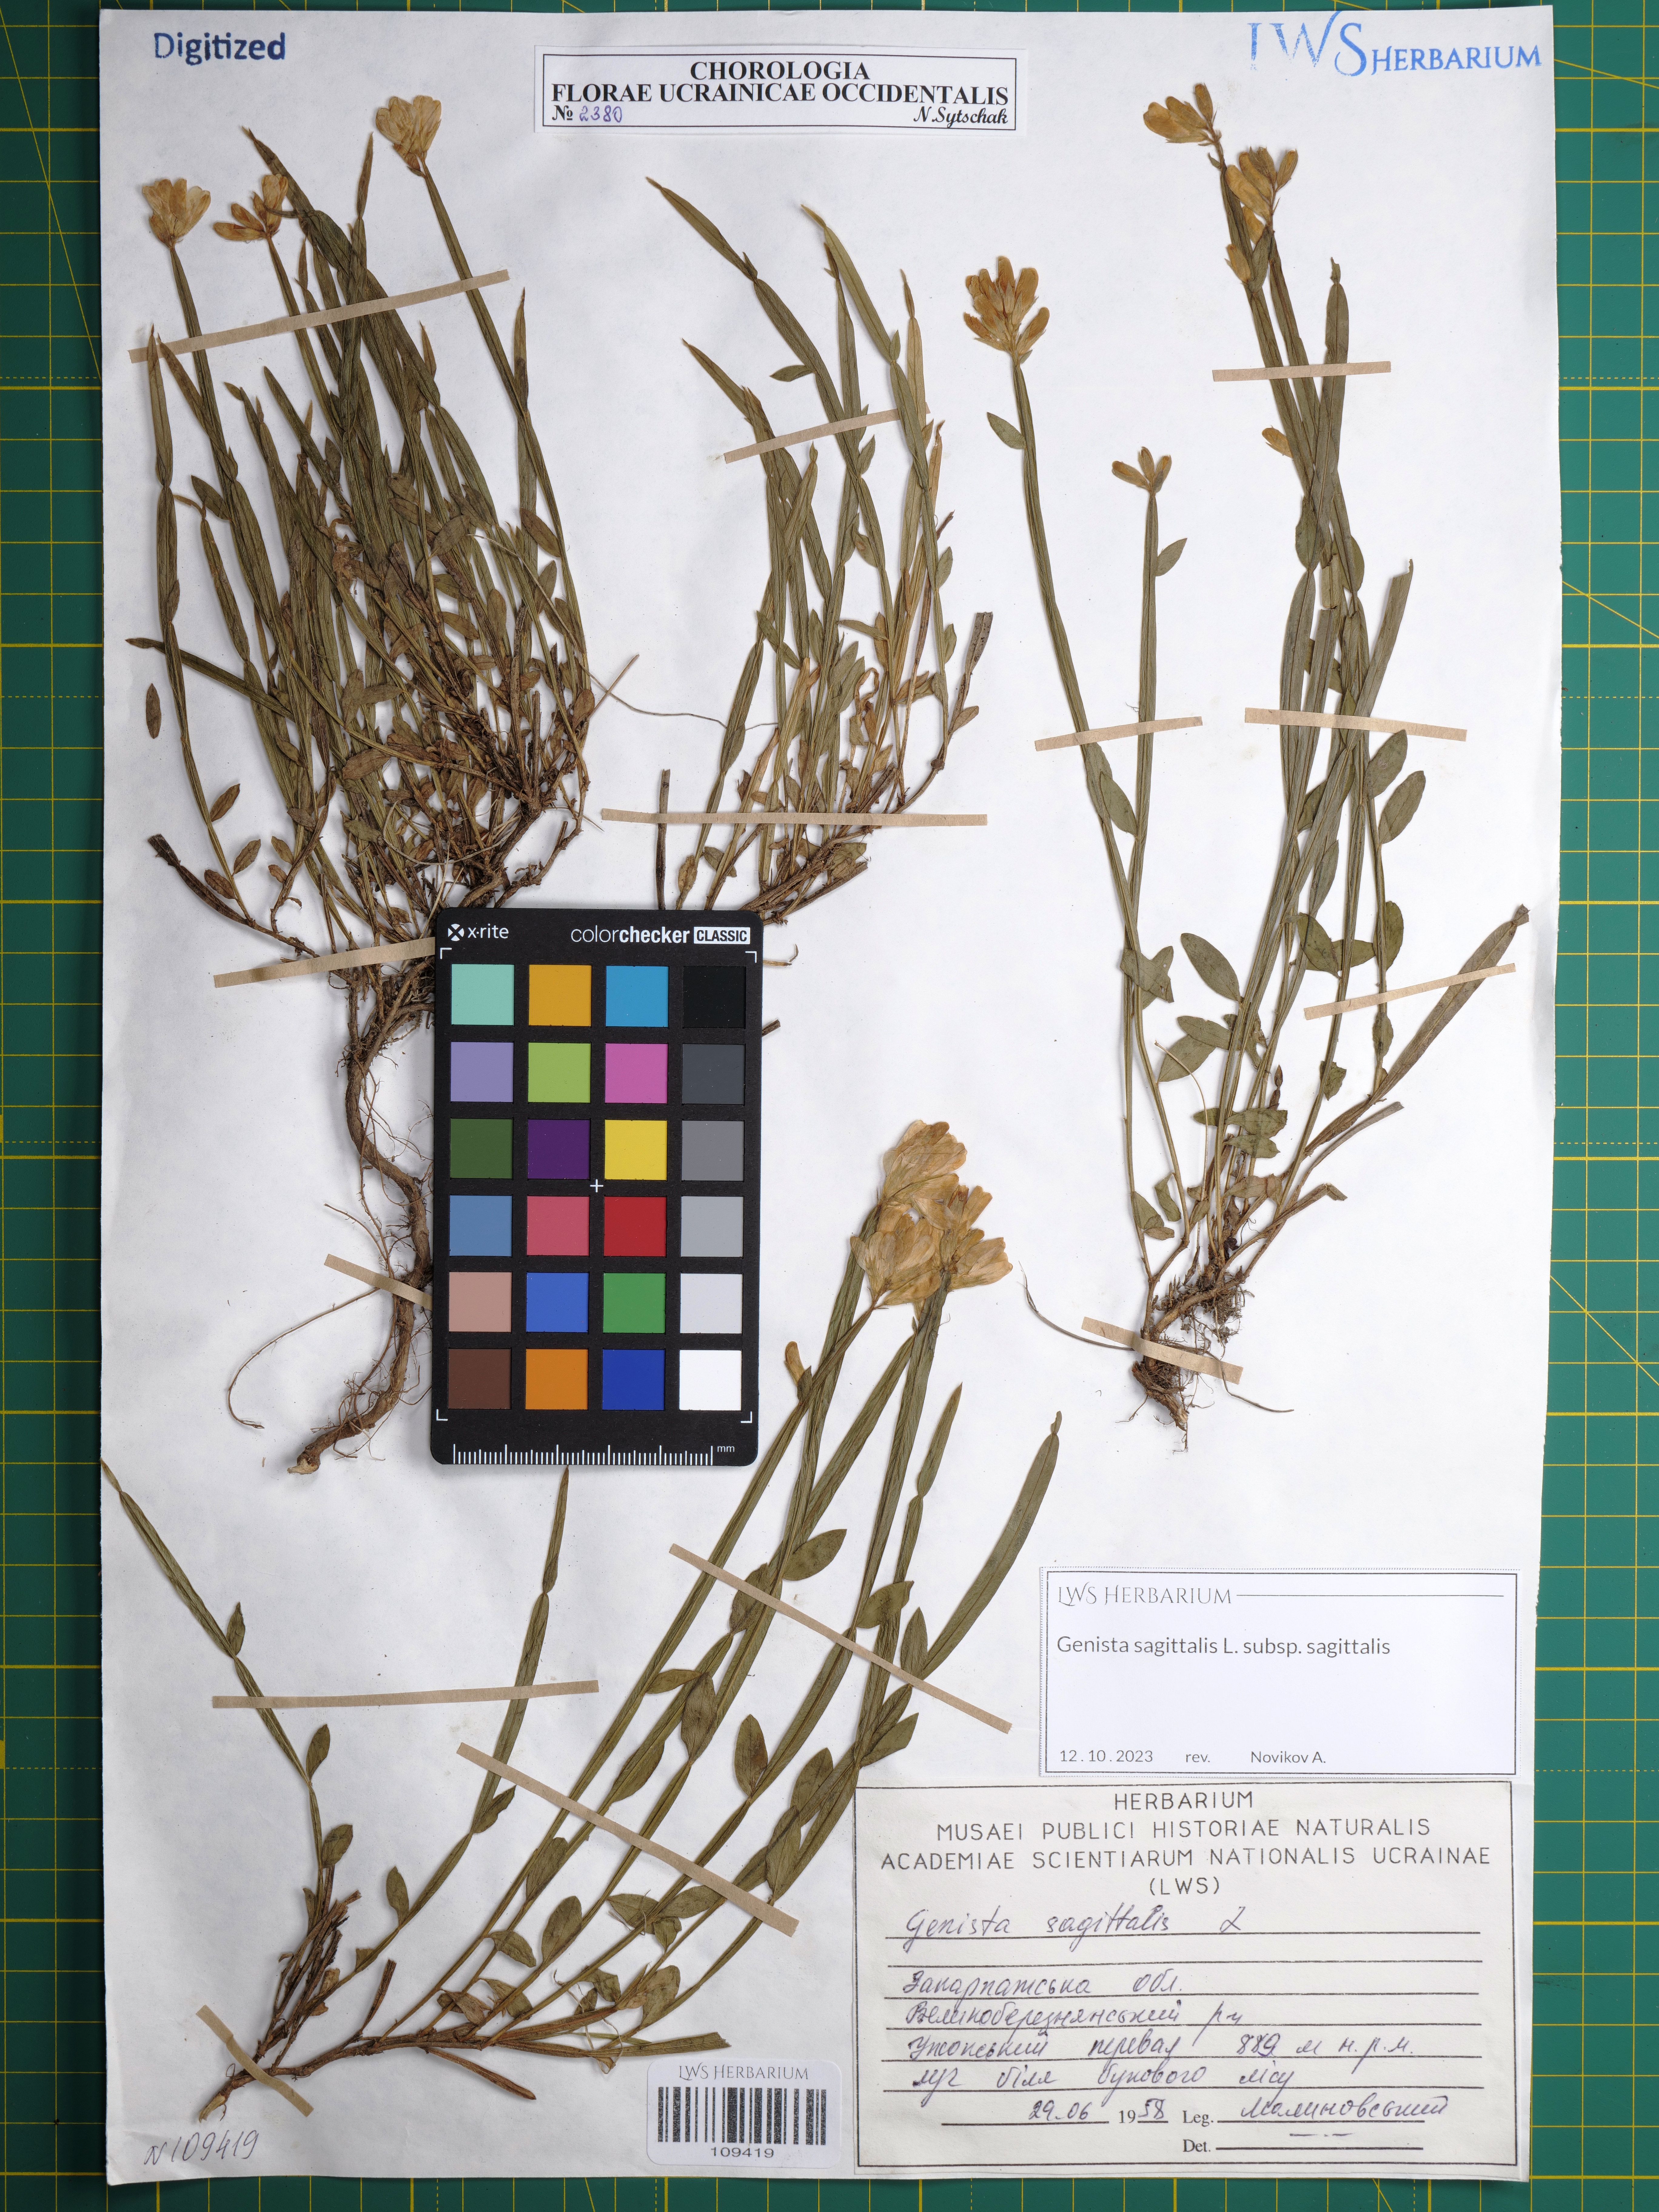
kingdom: Plantae
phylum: Tracheophyta
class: Magnoliopsida
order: Fabales
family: Fabaceae
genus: Genista
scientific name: Genista sagittalis
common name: Winged greenweed
